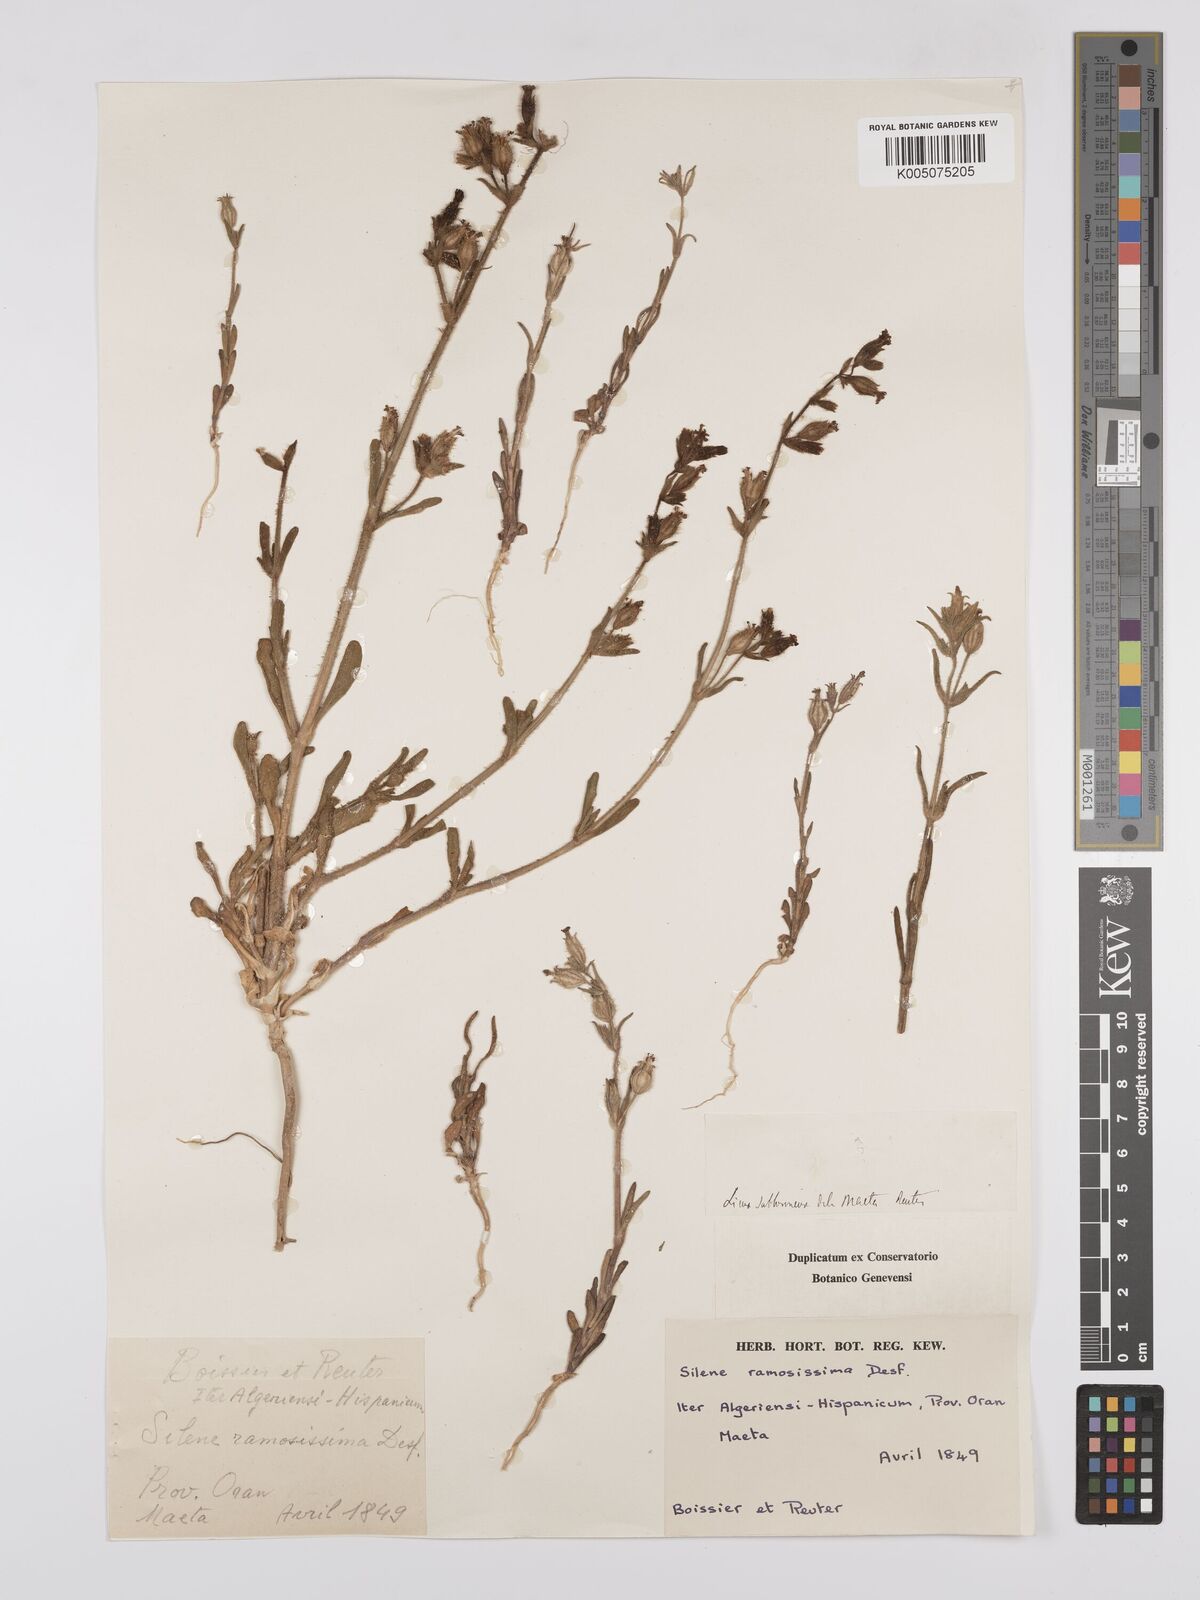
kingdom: Plantae
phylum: Tracheophyta
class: Magnoliopsida
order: Caryophyllales
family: Caryophyllaceae
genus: Silene
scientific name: Silene ramosissima
